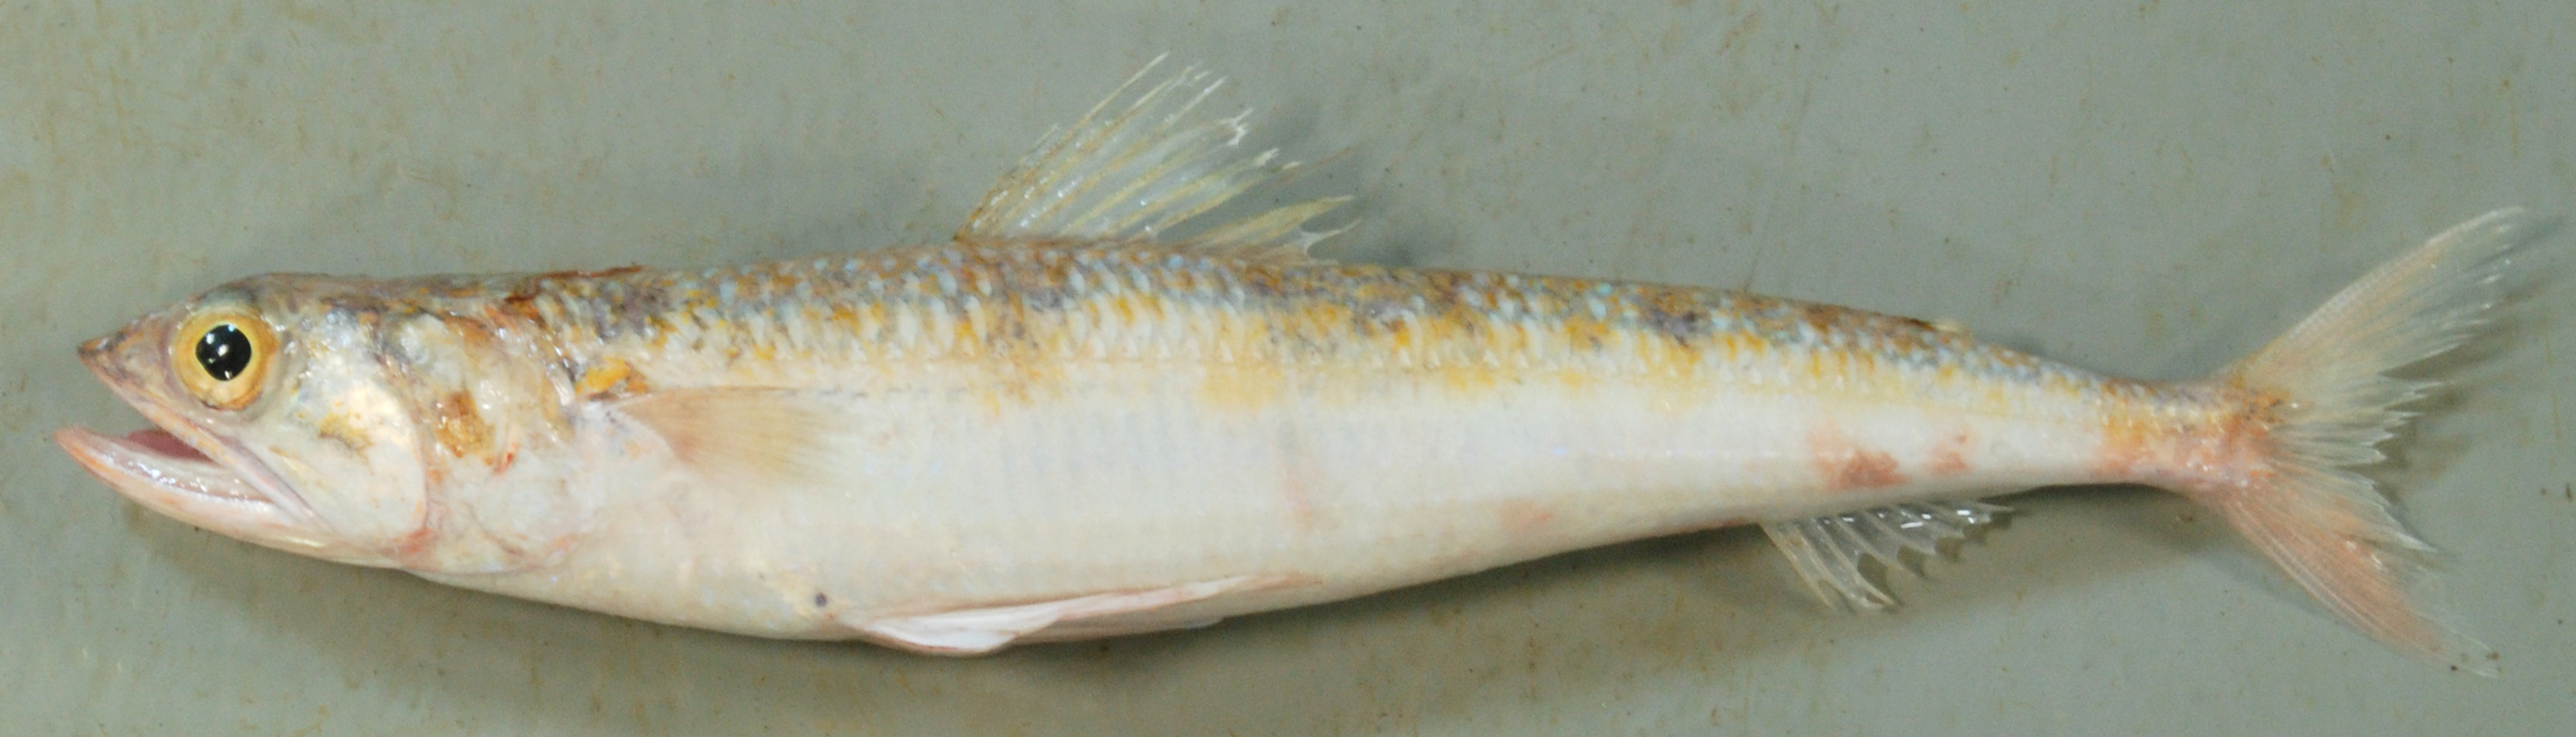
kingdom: Animalia
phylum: Chordata
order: Aulopiformes
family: Synodontidae
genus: Synodus
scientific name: Synodus
